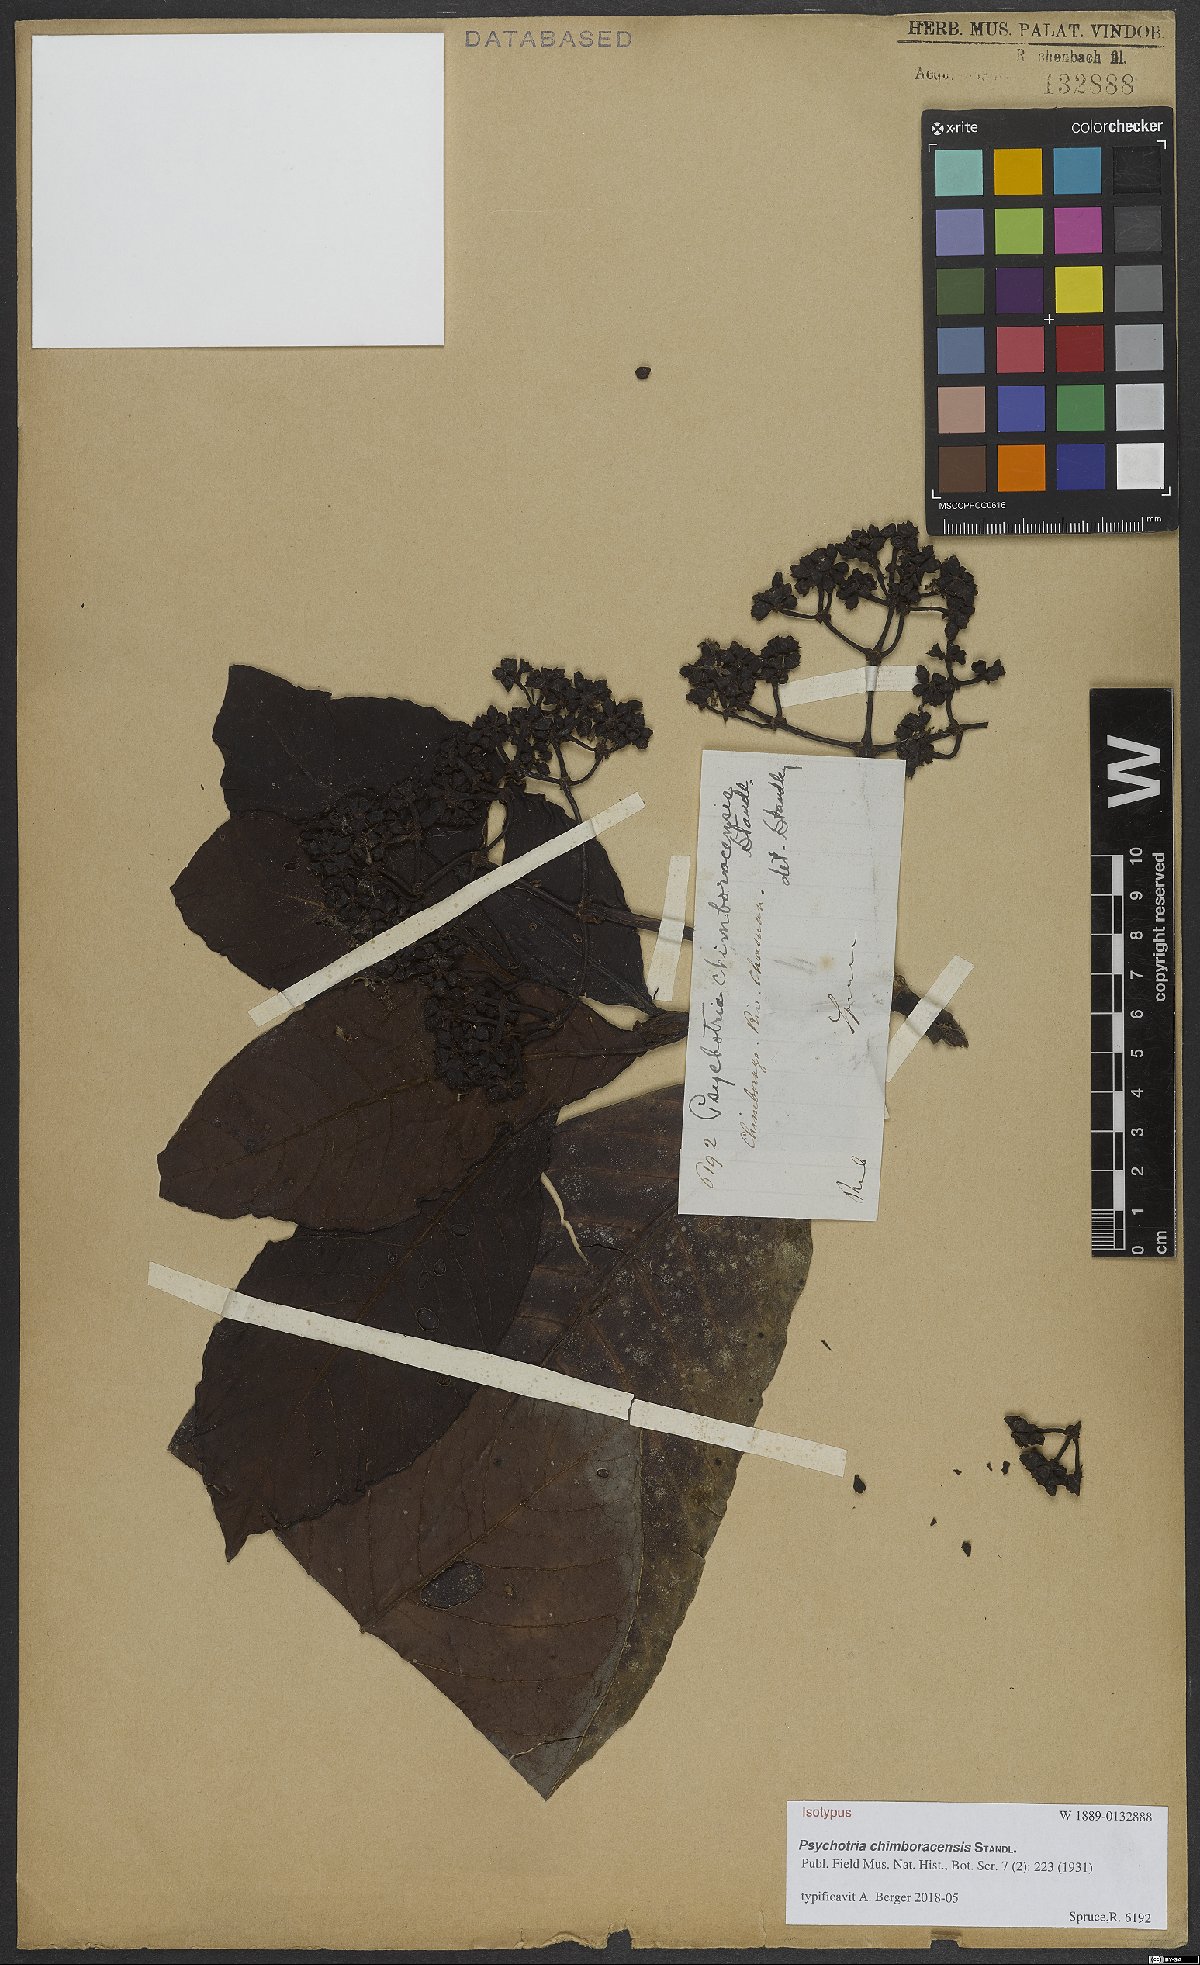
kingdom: Plantae
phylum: Tracheophyta
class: Magnoliopsida
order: Gentianales
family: Rubiaceae
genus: Psychotria
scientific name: Psychotria chimboracensis
